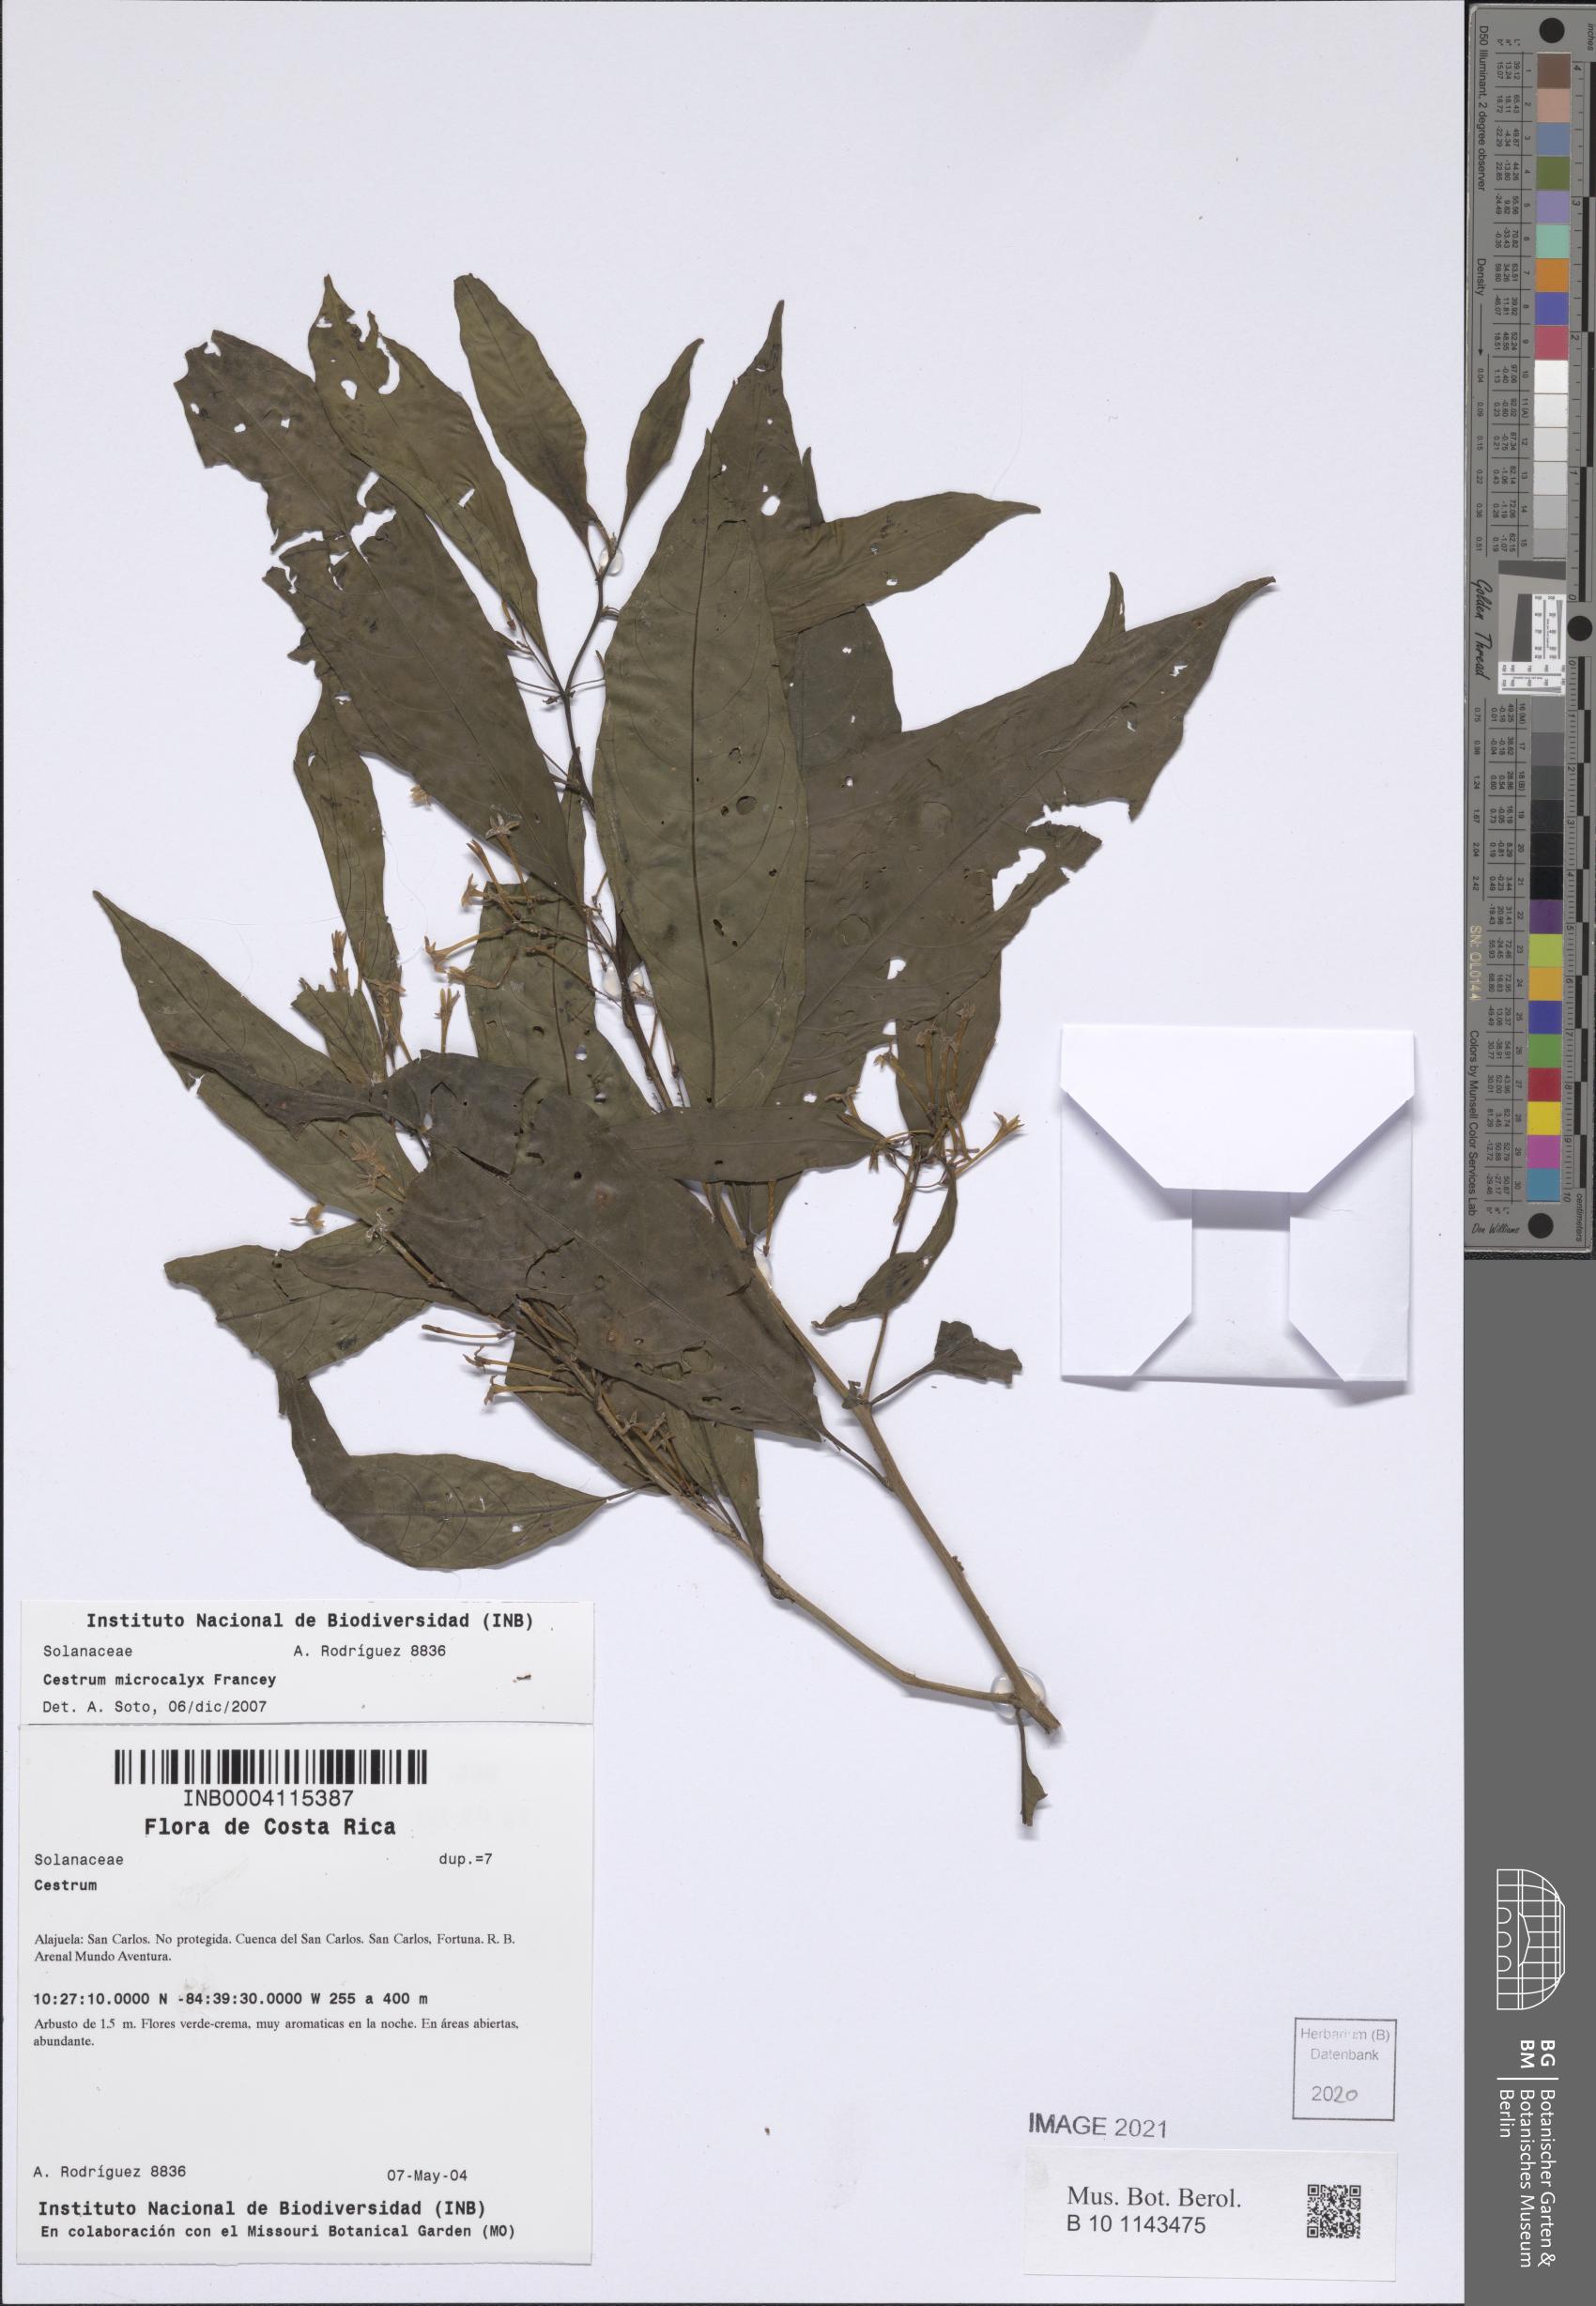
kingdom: Plantae
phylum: Tracheophyta
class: Magnoliopsida
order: Solanales
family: Solanaceae
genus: Cestrum
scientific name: Cestrum microcalyx
